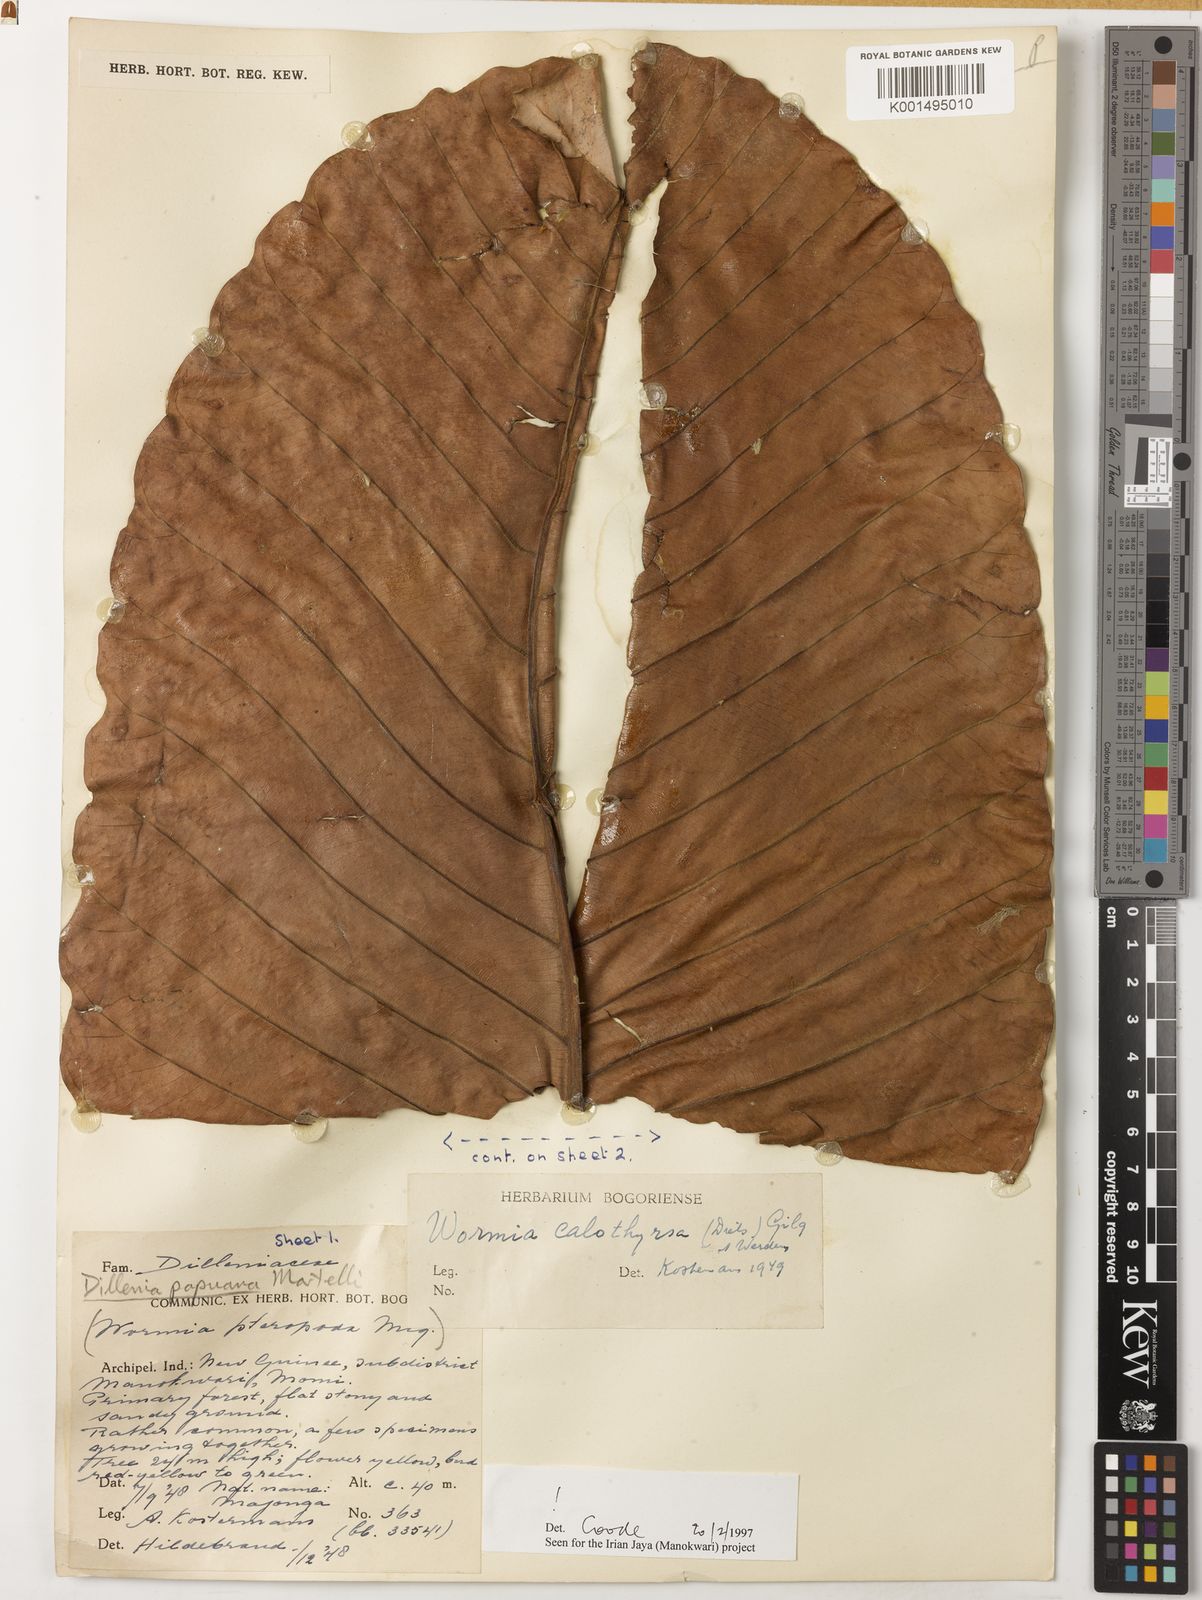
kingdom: Plantae
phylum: Tracheophyta
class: Magnoliopsida
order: Dilleniales
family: Dilleniaceae
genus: Dillenia
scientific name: Dillenia papuana
